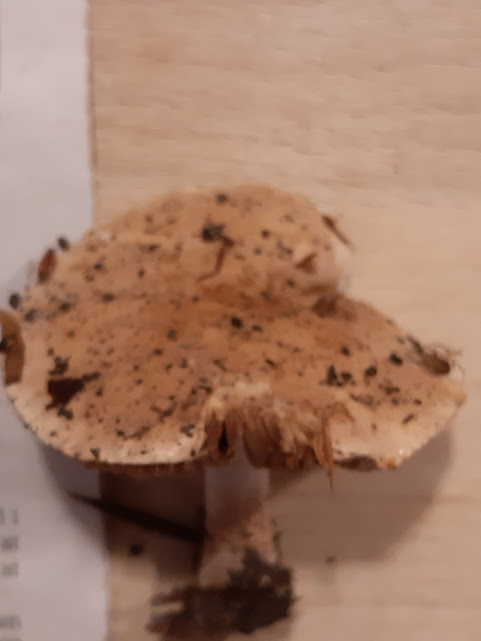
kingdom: Fungi
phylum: Basidiomycota
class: Agaricomycetes
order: Agaricales
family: Hymenogastraceae
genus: Hebeloma
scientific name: Hebeloma
